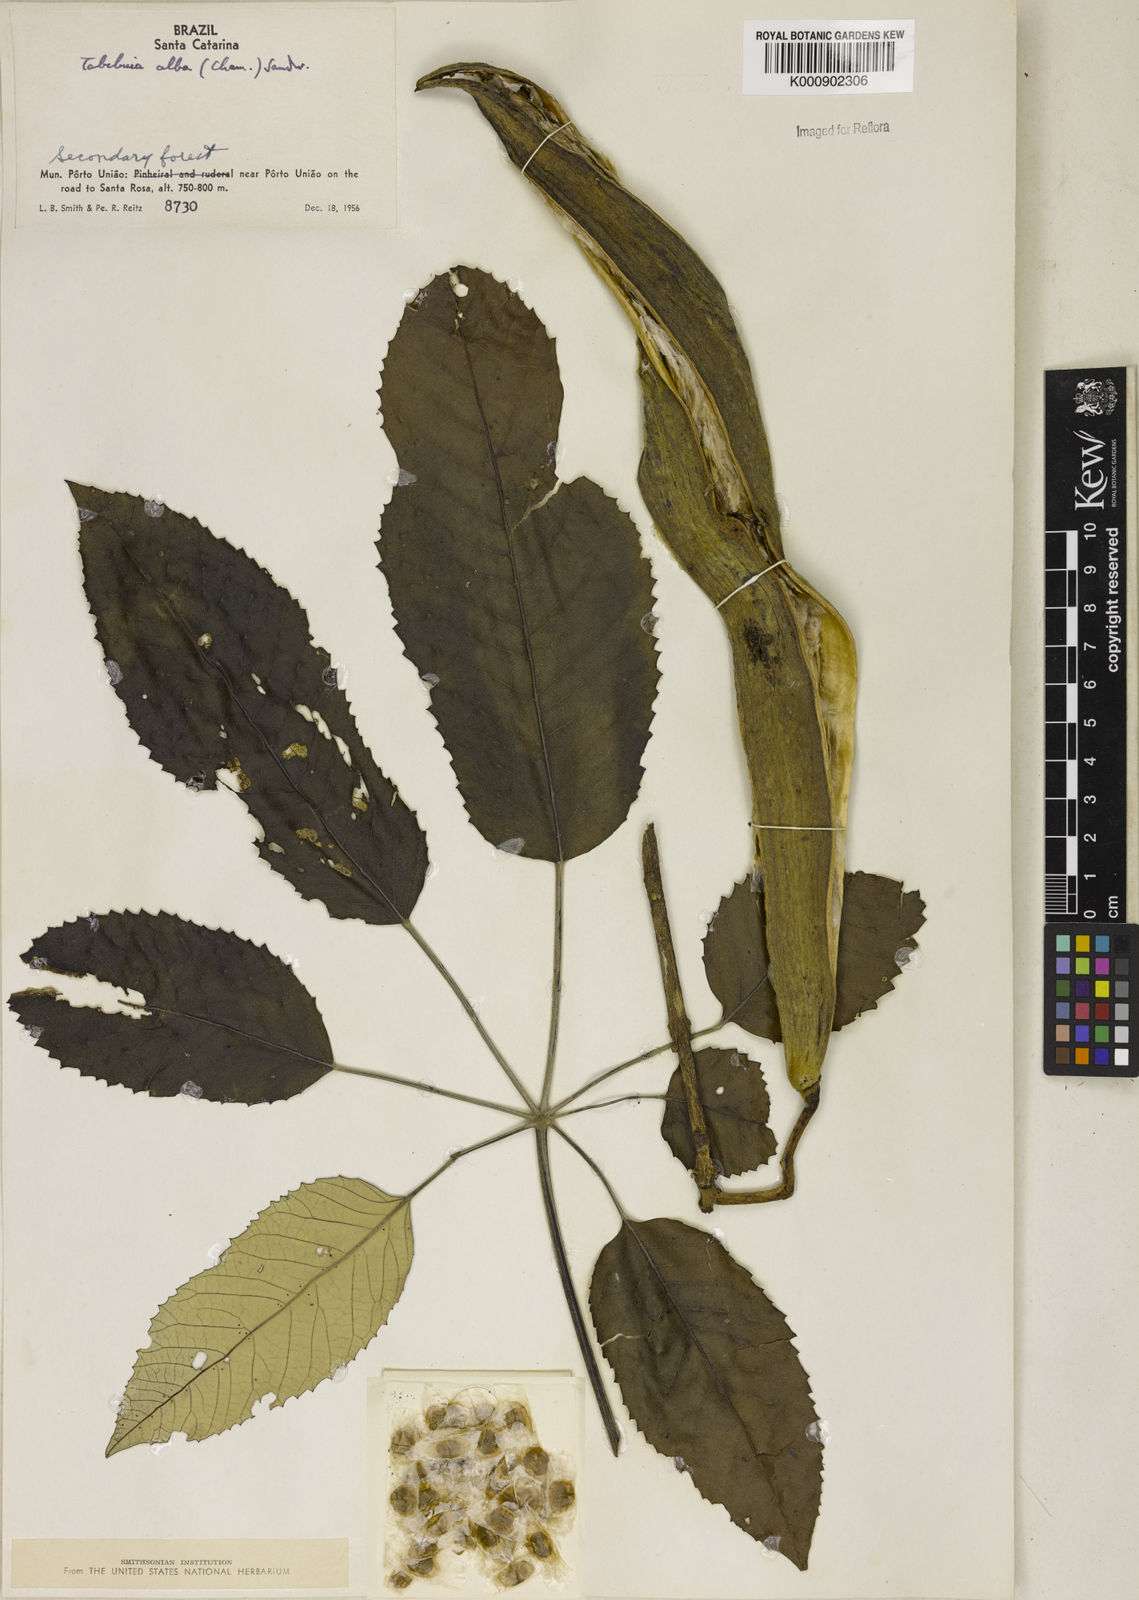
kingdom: Plantae
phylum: Tracheophyta
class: Magnoliopsida
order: Lamiales
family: Bignoniaceae
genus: Handroanthus
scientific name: Handroanthus albus
